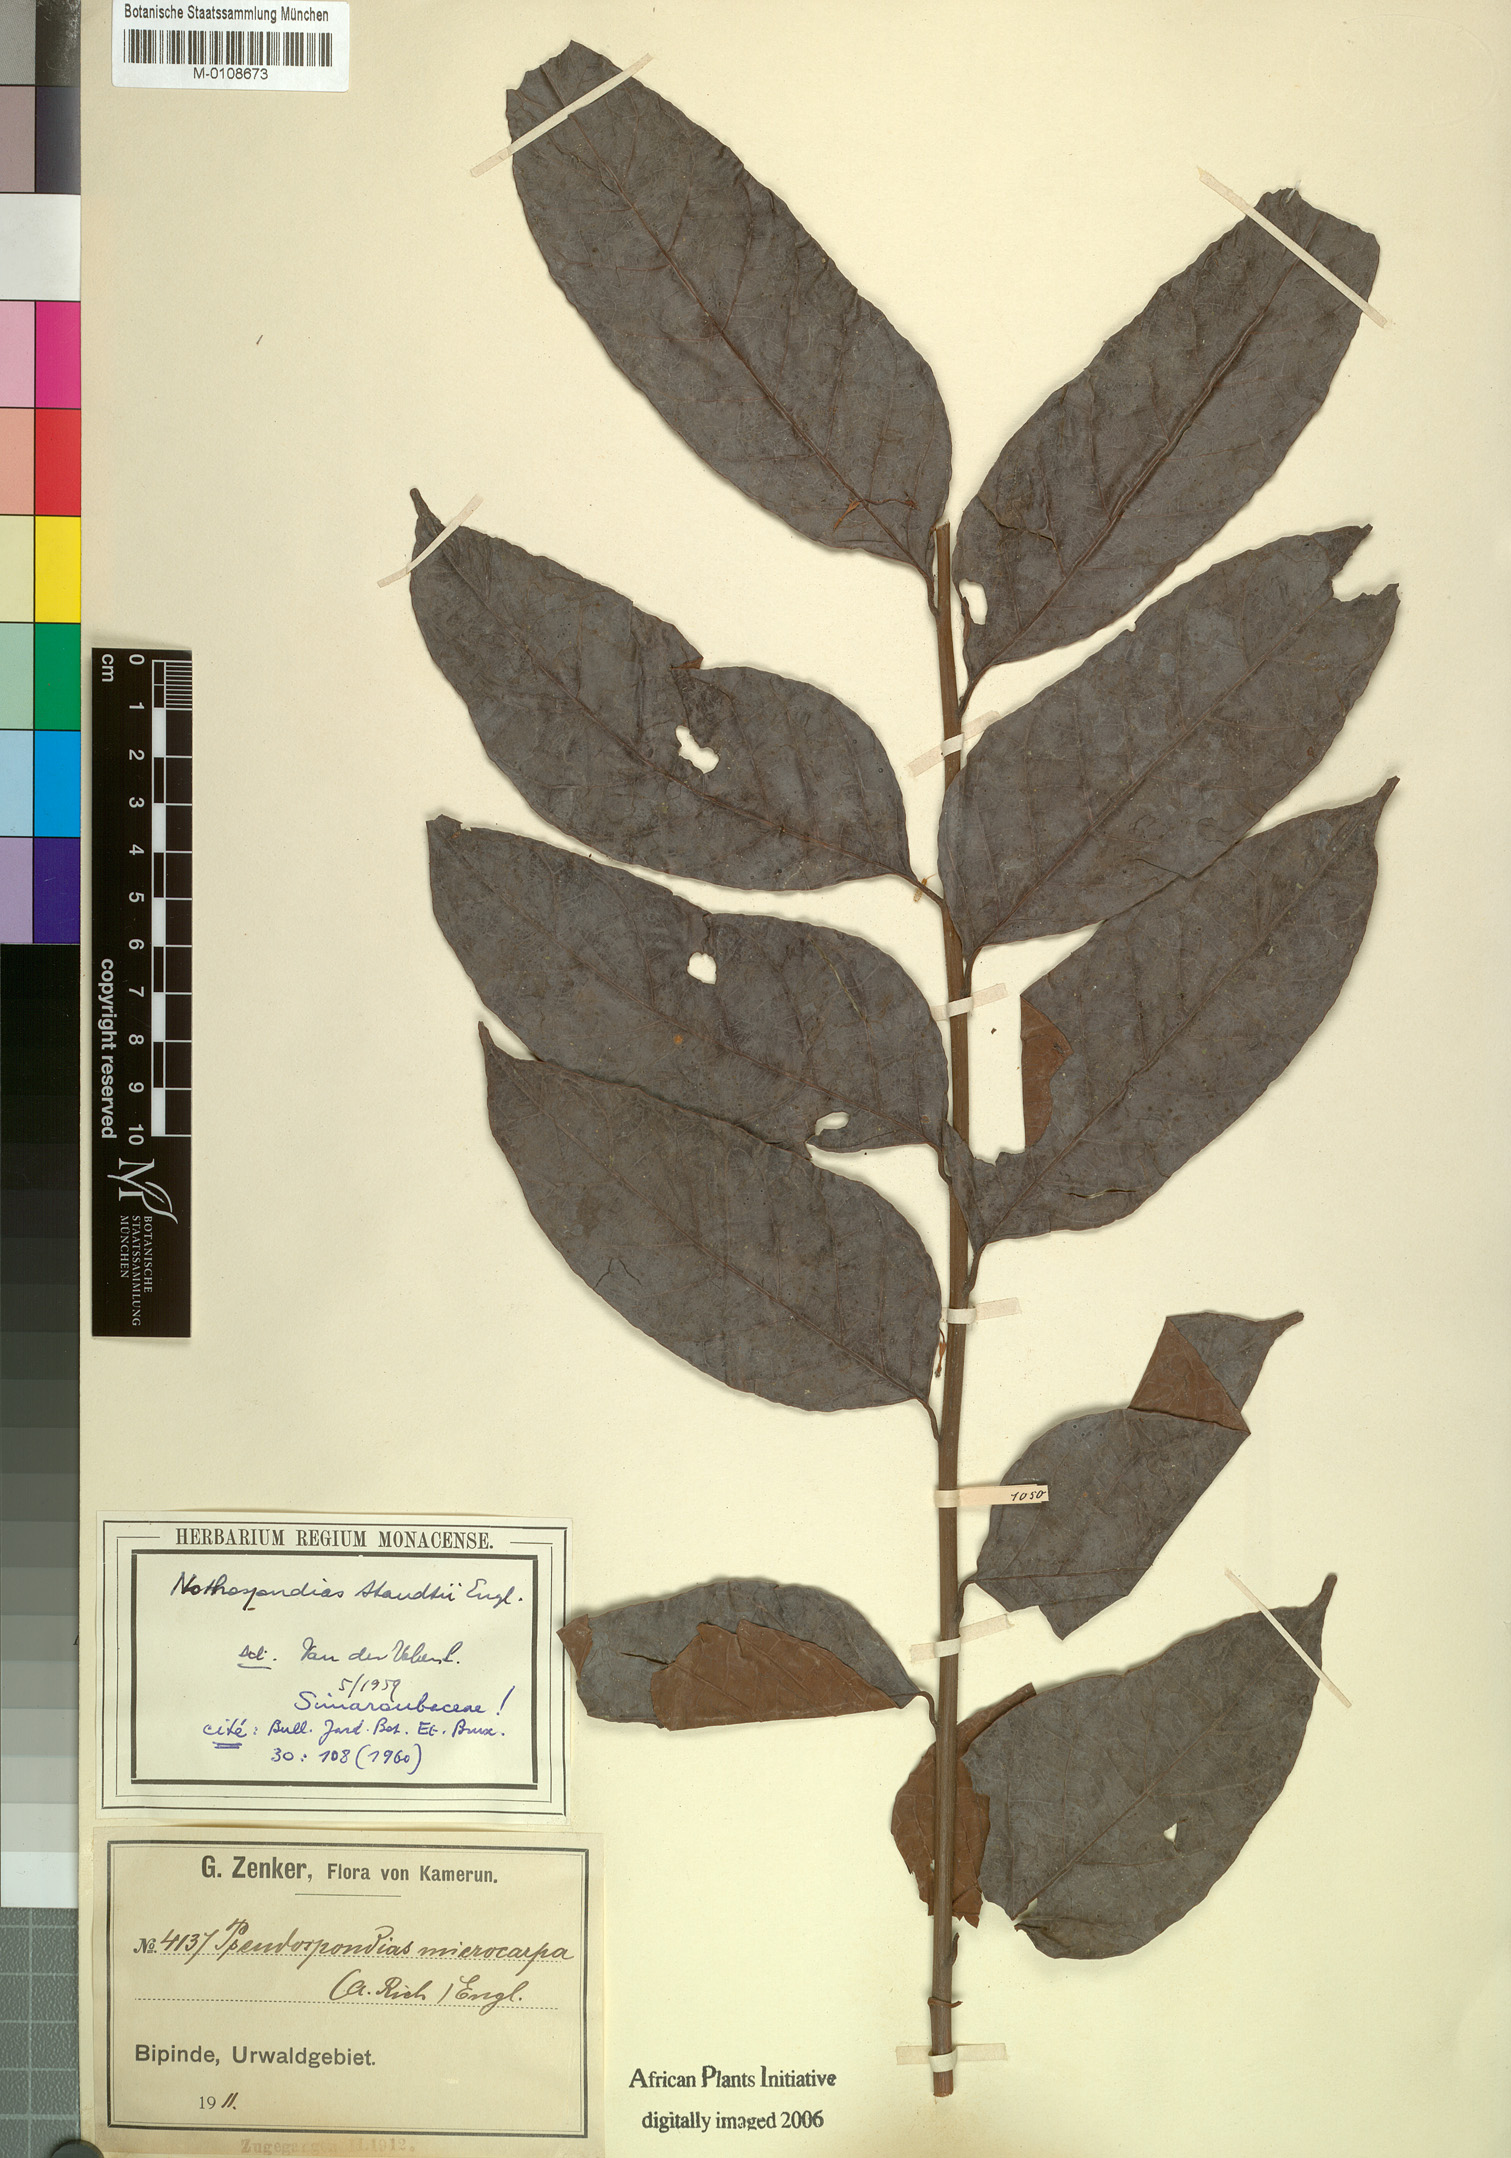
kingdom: Plantae
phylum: Tracheophyta
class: Magnoliopsida
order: Sapindales
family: Simaroubaceae
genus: Nothospondias
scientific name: Nothospondias staudtii
